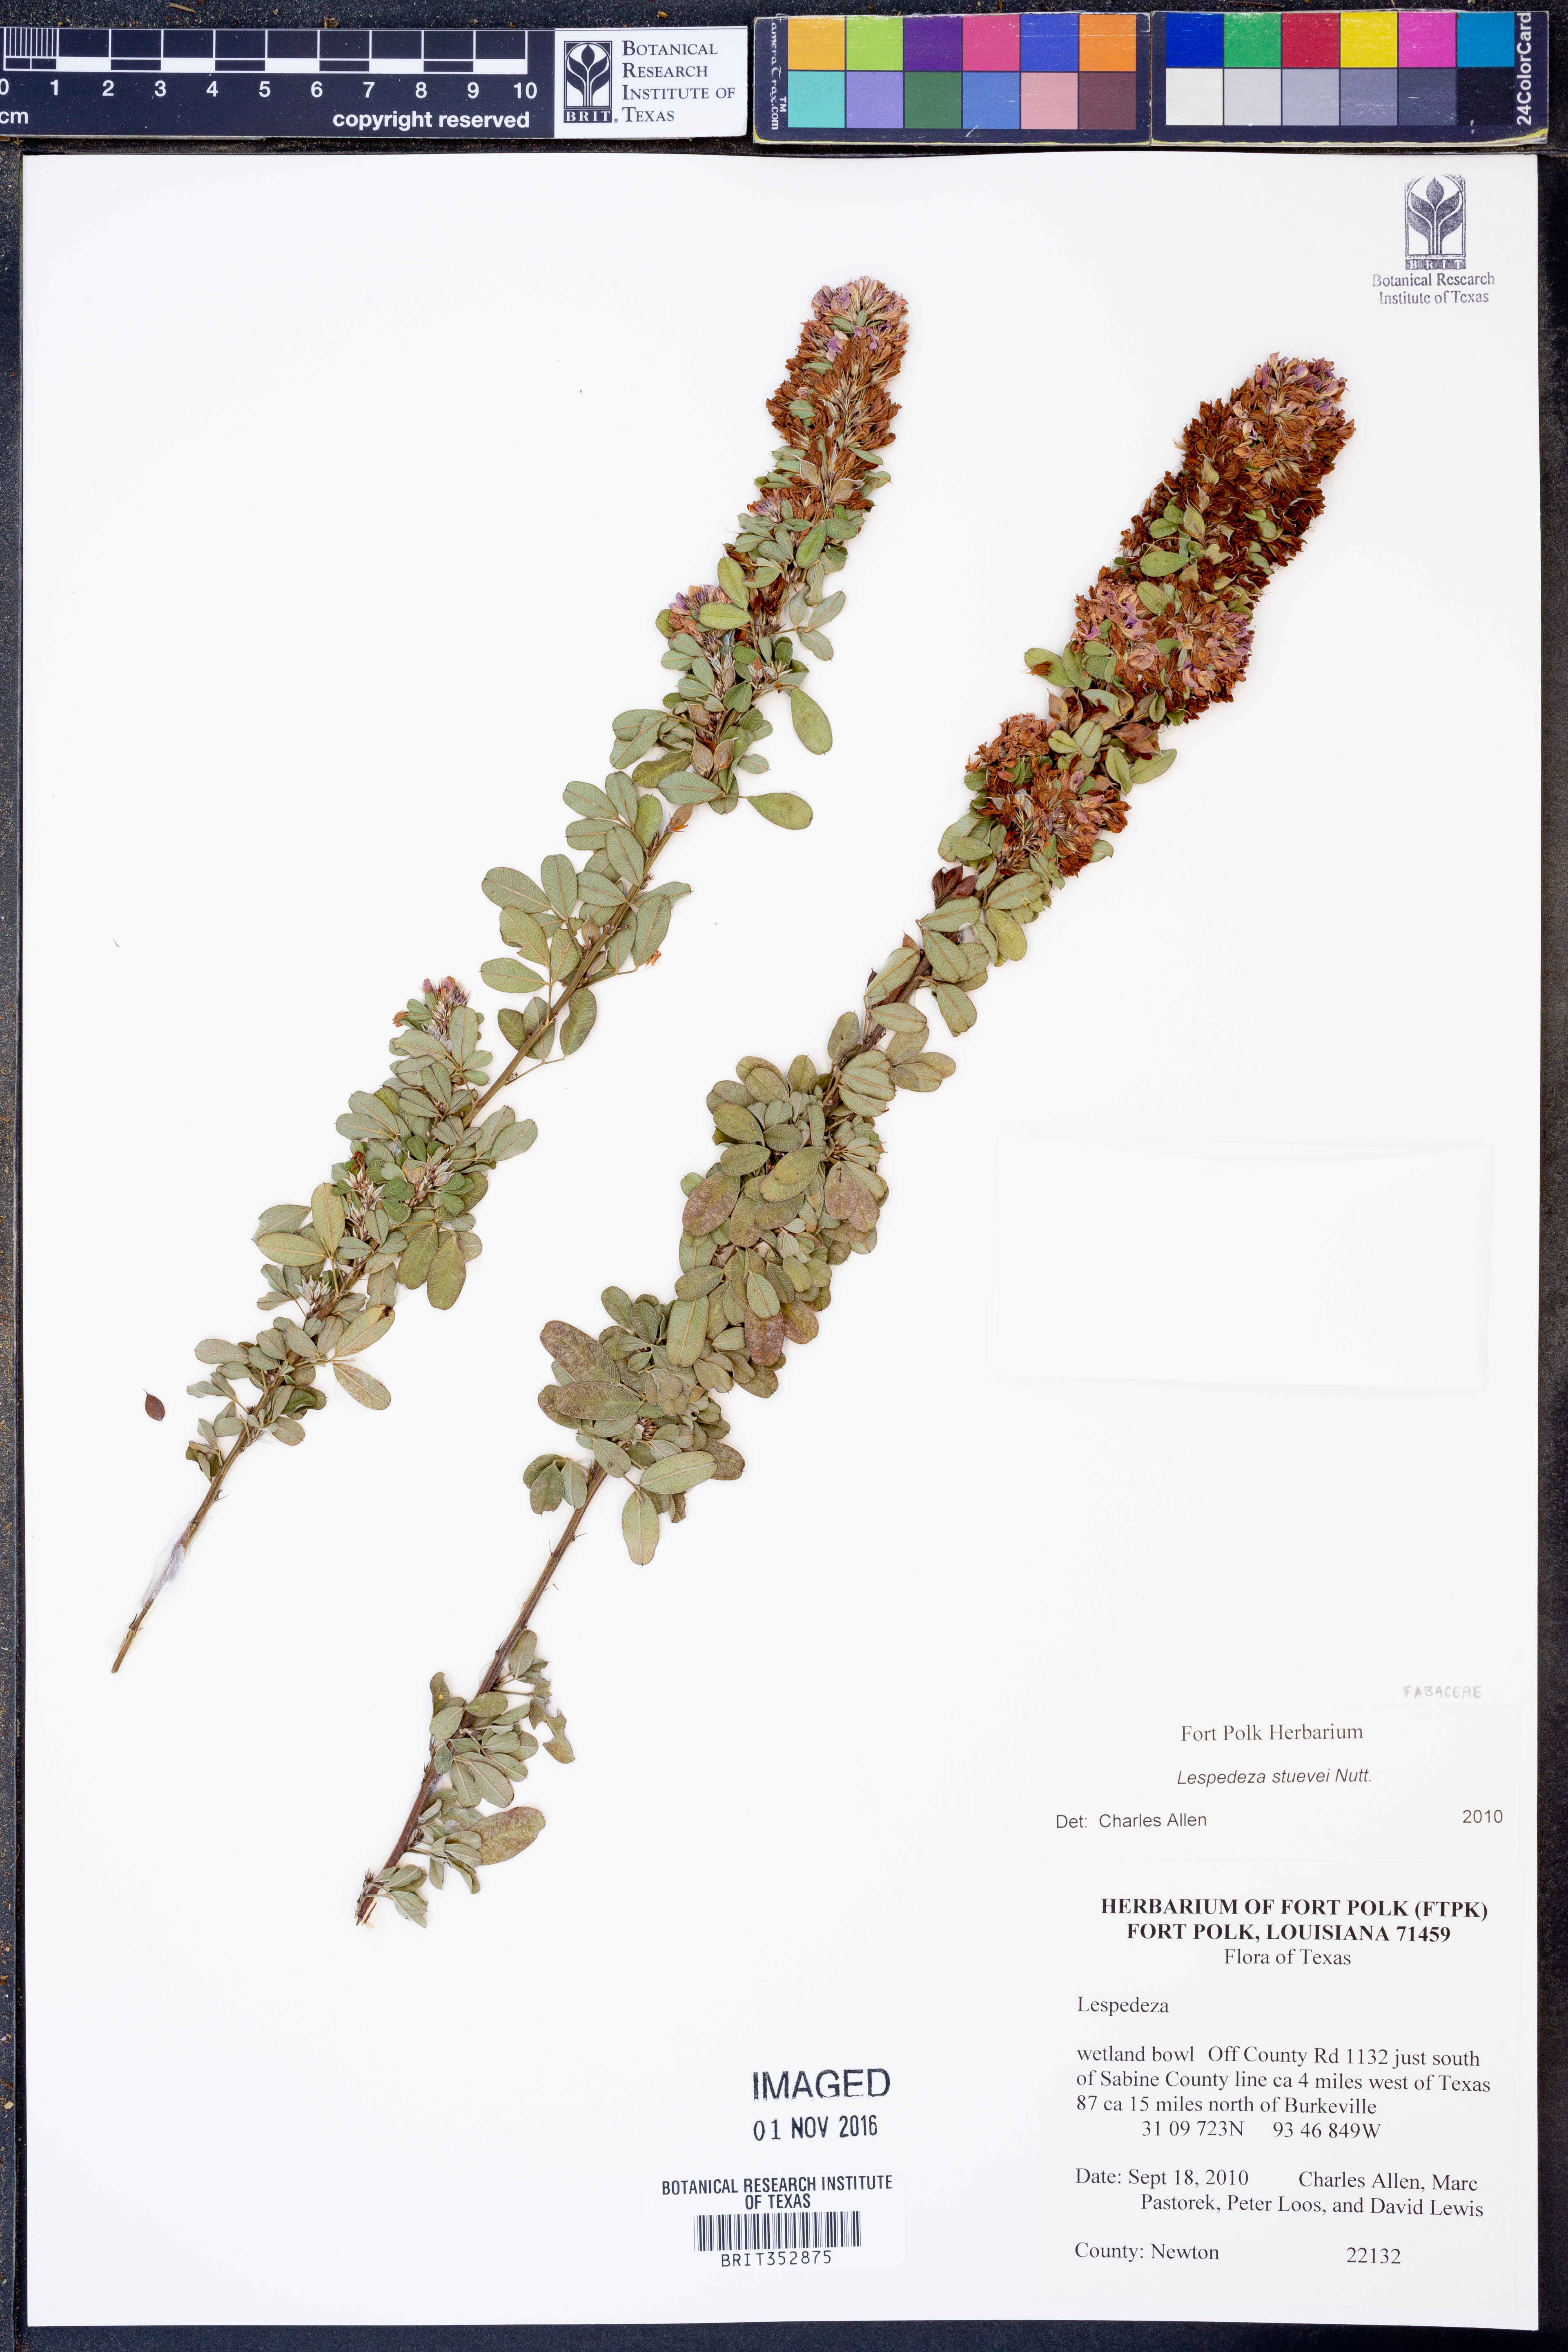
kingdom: Plantae
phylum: Tracheophyta
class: Magnoliopsida
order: Fabales
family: Fabaceae
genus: Lespedeza
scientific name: Lespedeza stuevei
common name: Tall bush-clover
